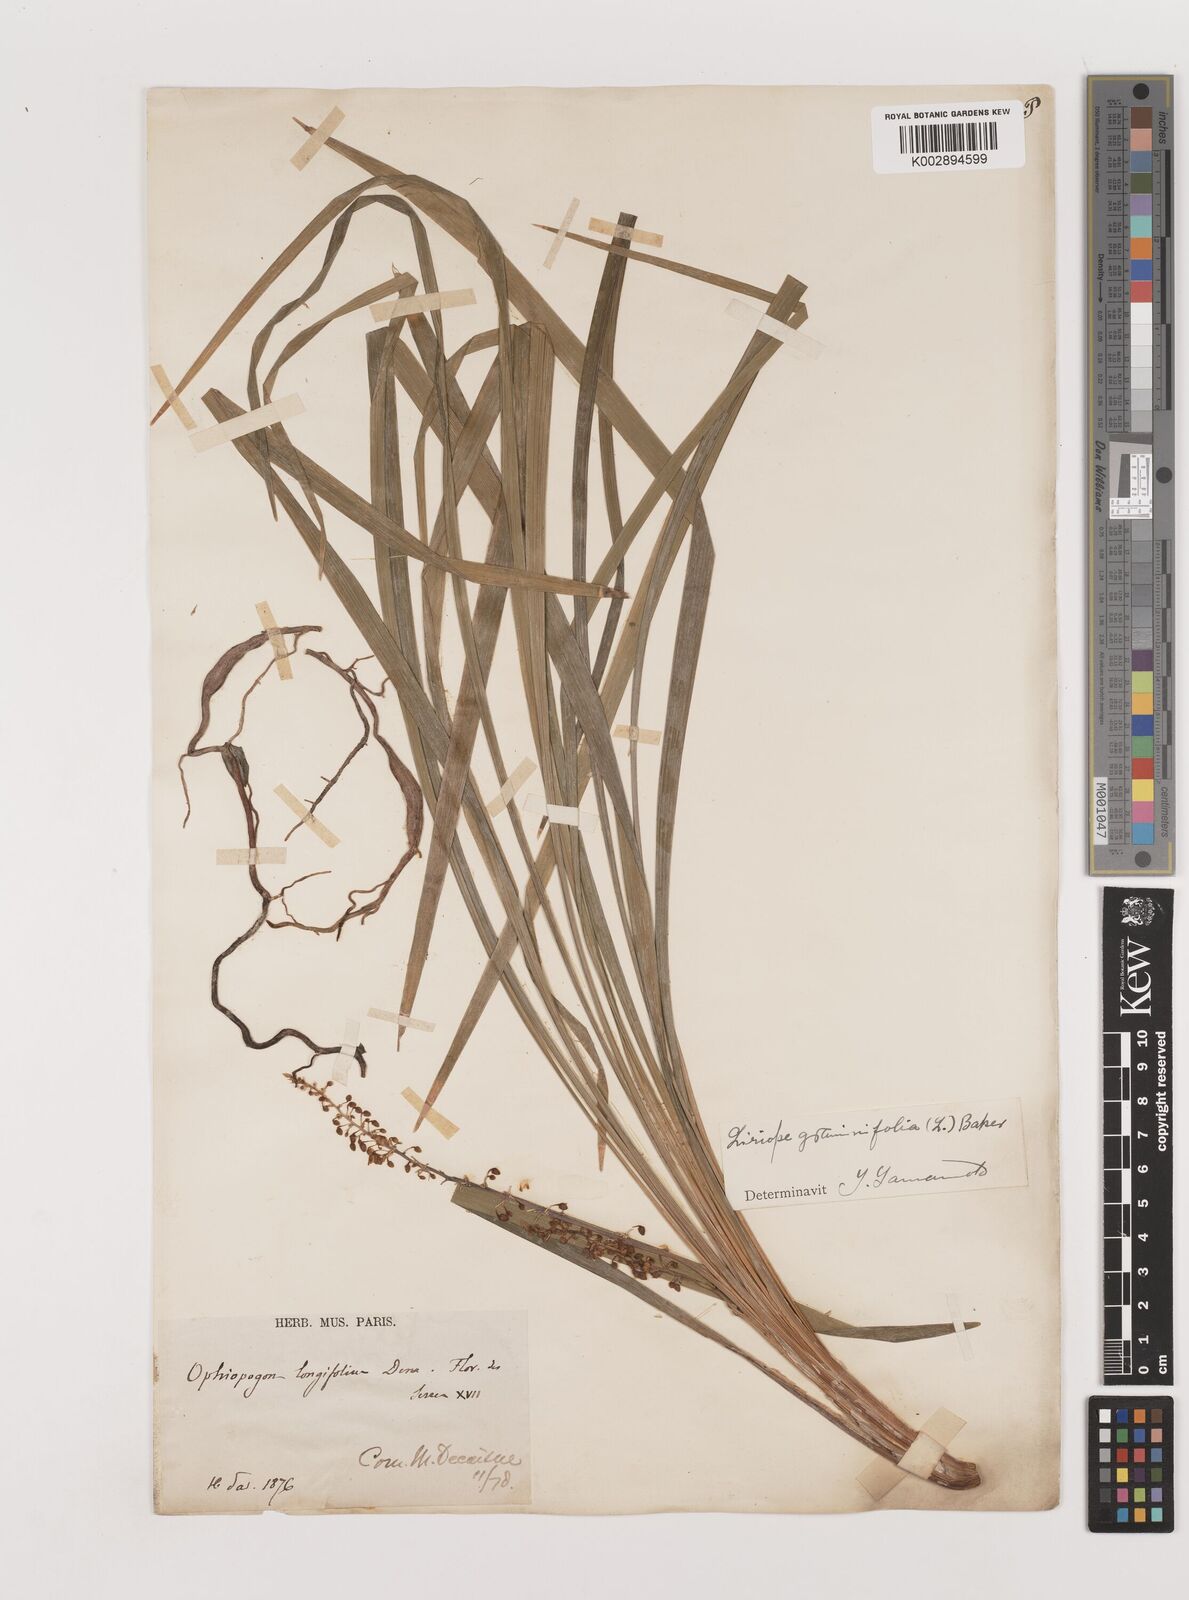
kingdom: Plantae
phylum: Tracheophyta
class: Liliopsida
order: Asparagales
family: Asparagaceae
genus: Liriope
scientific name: Liriope
